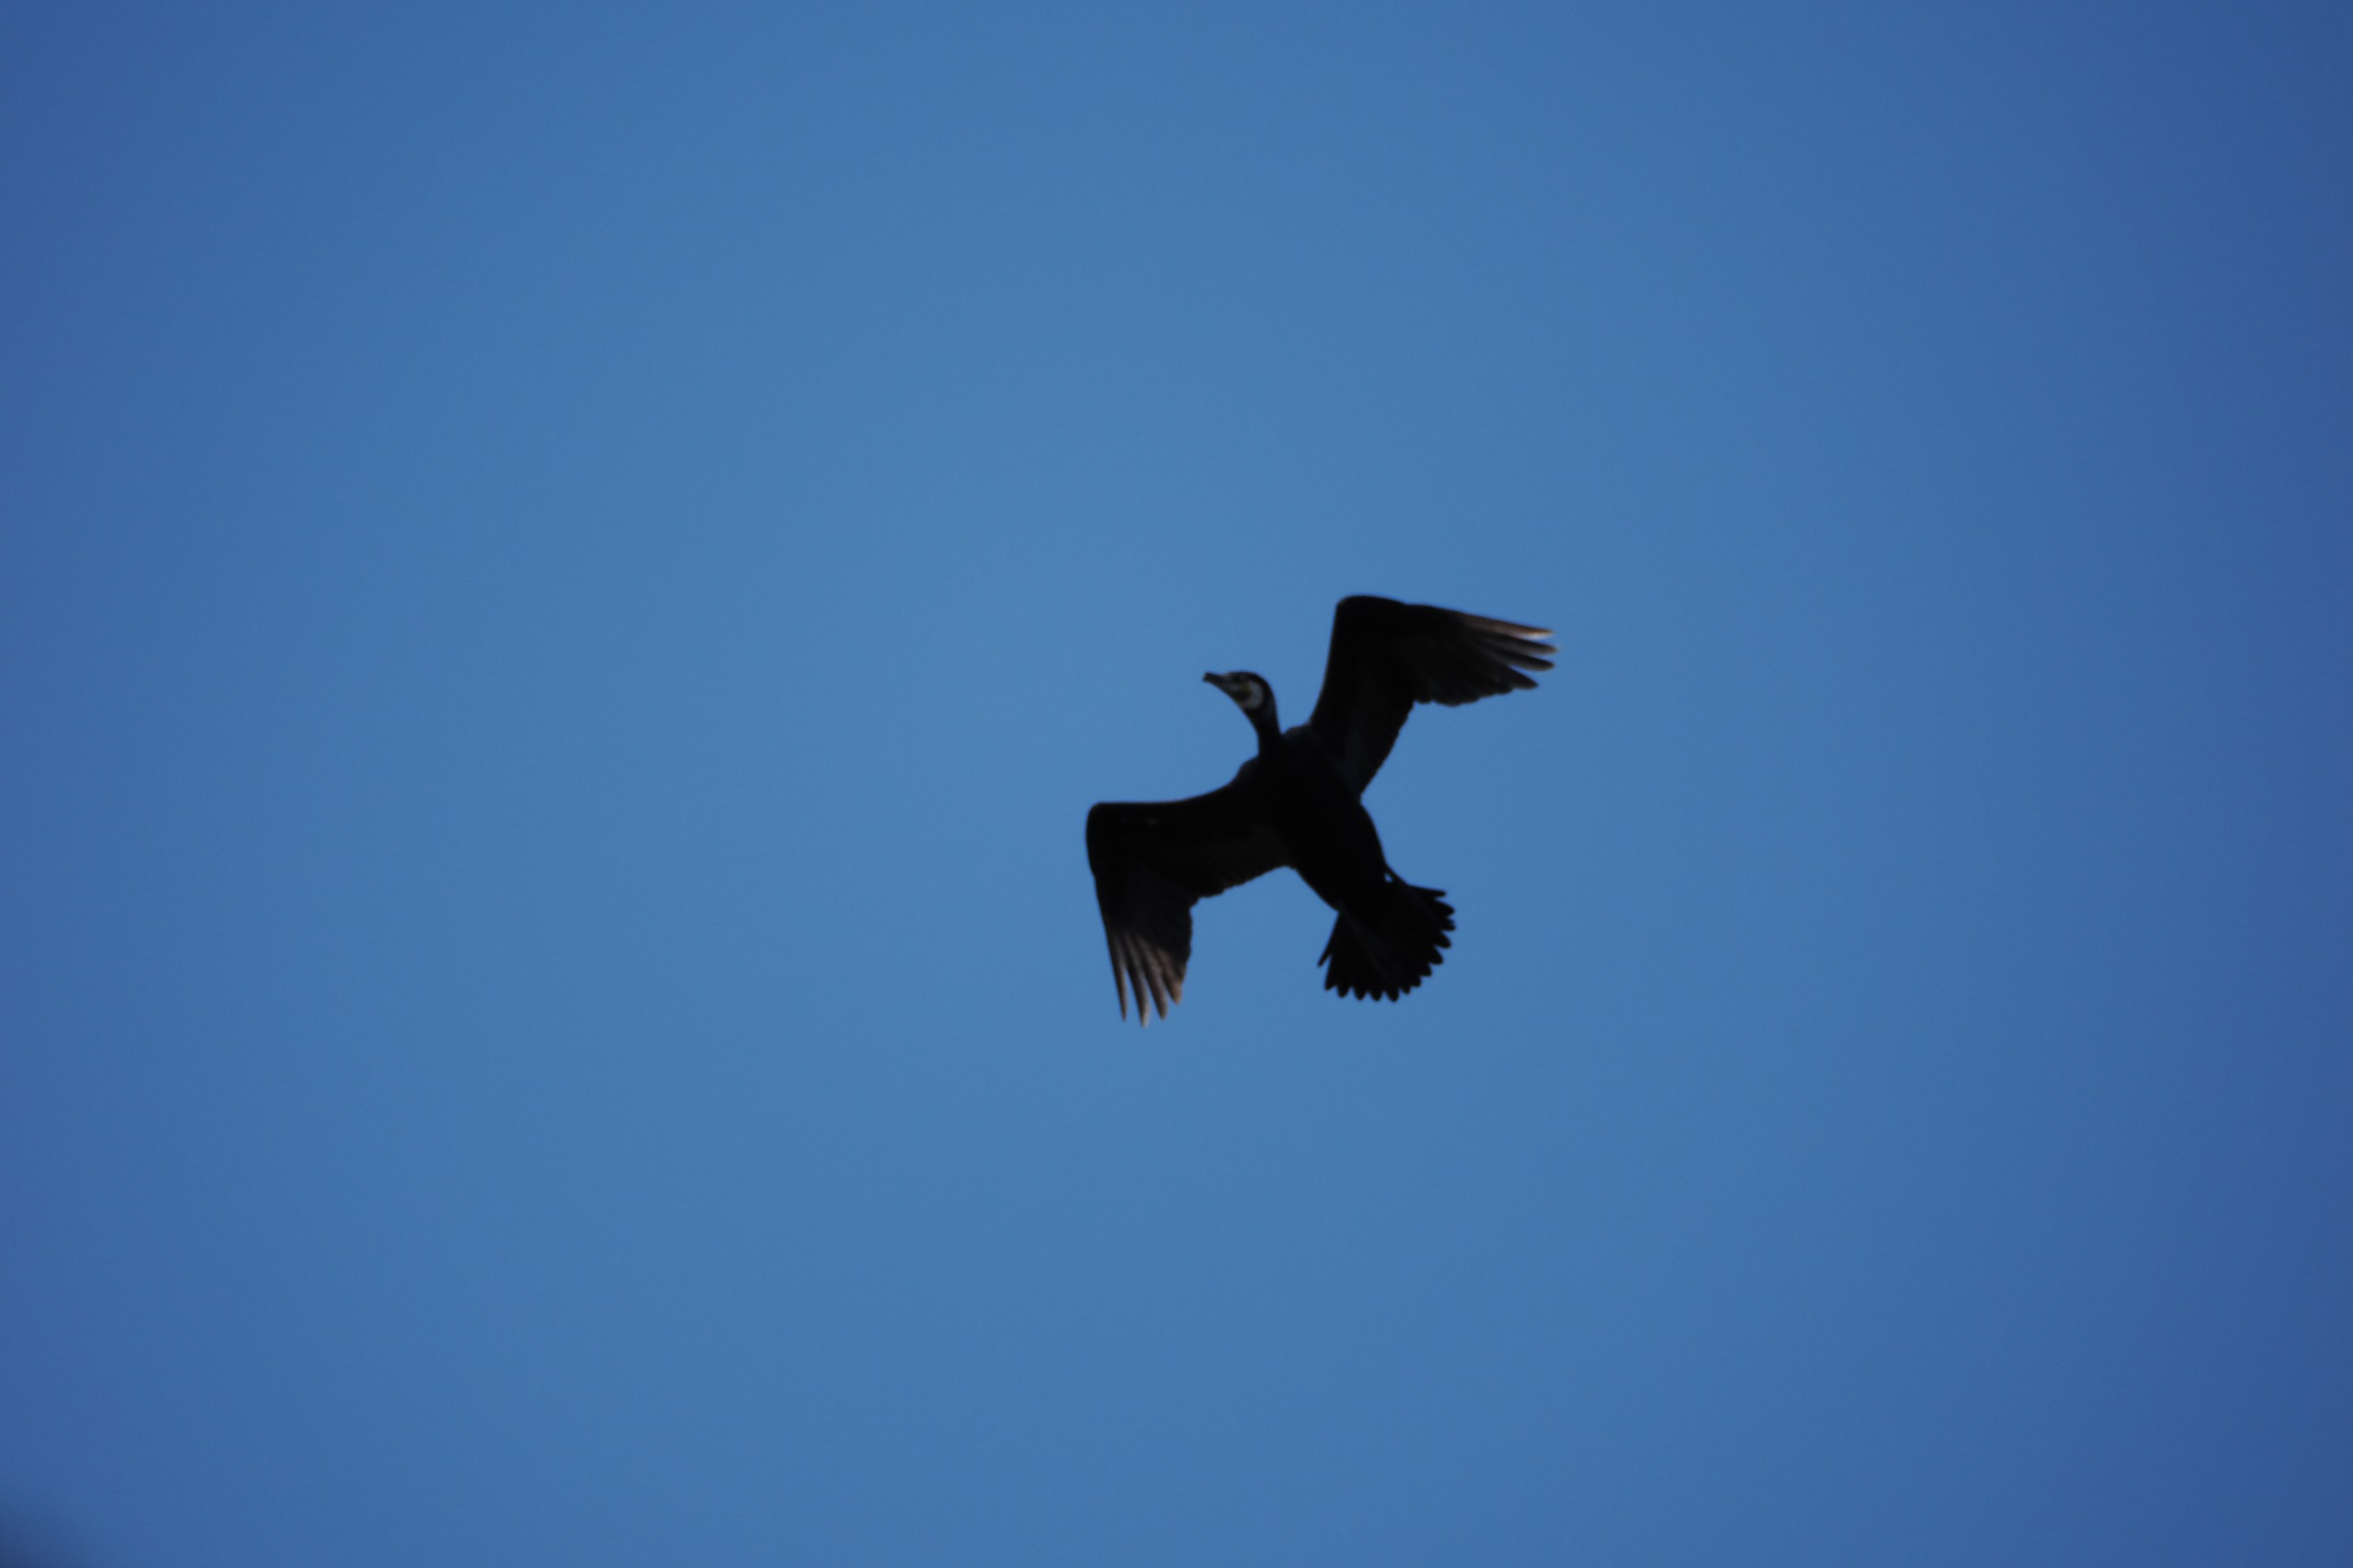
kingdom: Animalia
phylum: Chordata
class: Aves
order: Suliformes
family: Phalacrocoracidae
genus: Phalacrocorax
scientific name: Phalacrocorax carbo
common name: Skarv
